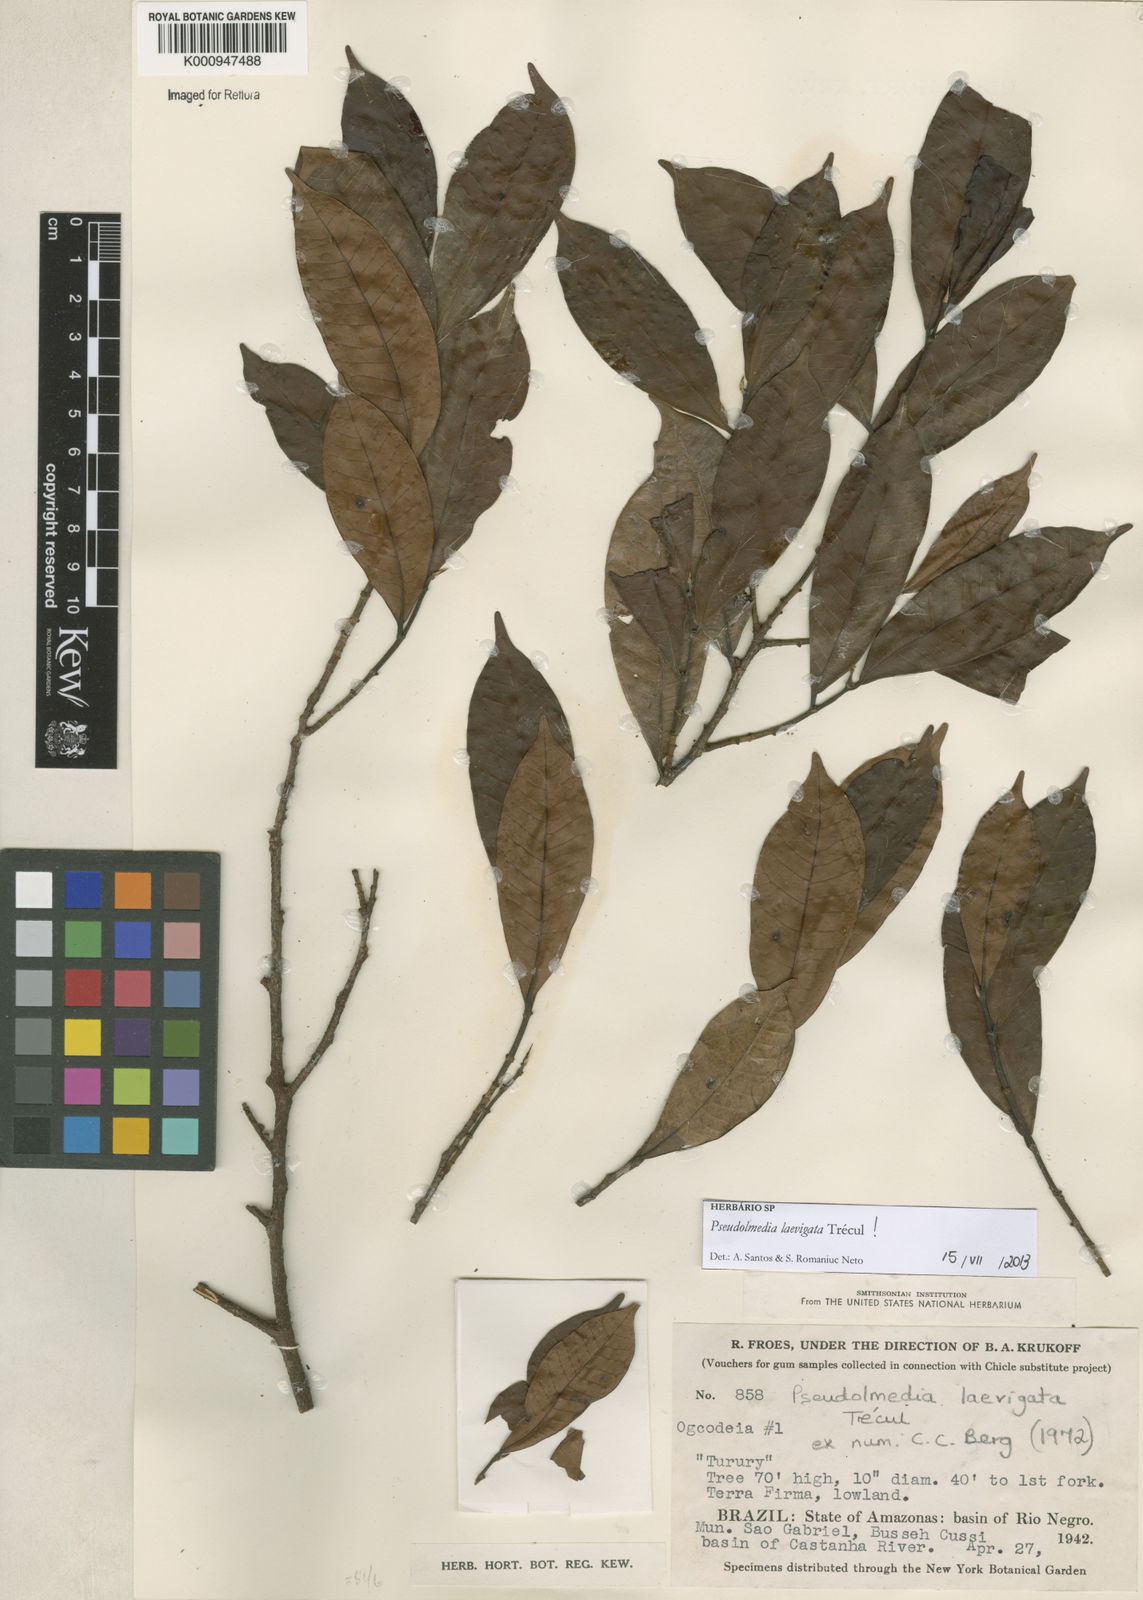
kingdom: Plantae
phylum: Tracheophyta
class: Magnoliopsida
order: Rosales
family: Moraceae
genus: Pseudolmedia
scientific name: Pseudolmedia
